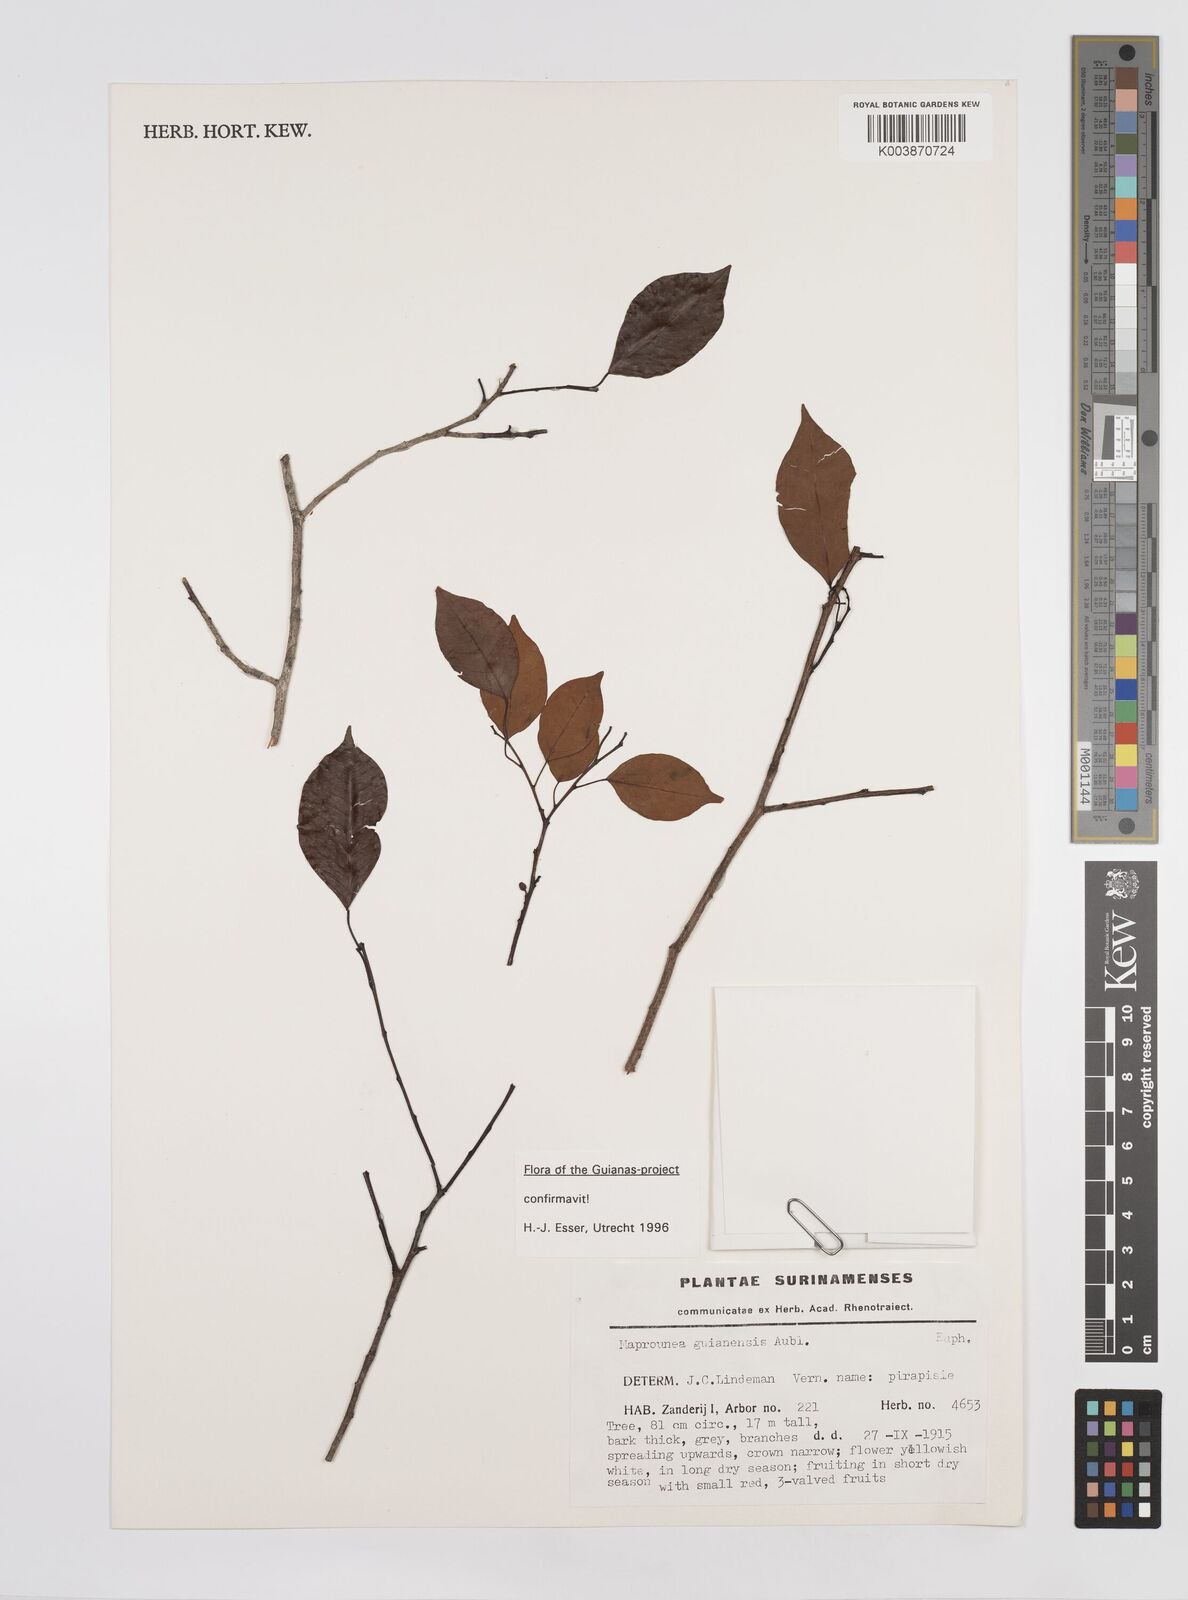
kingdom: Plantae
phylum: Tracheophyta
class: Magnoliopsida
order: Malpighiales
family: Euphorbiaceae
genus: Maprounea
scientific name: Maprounea guianensis
